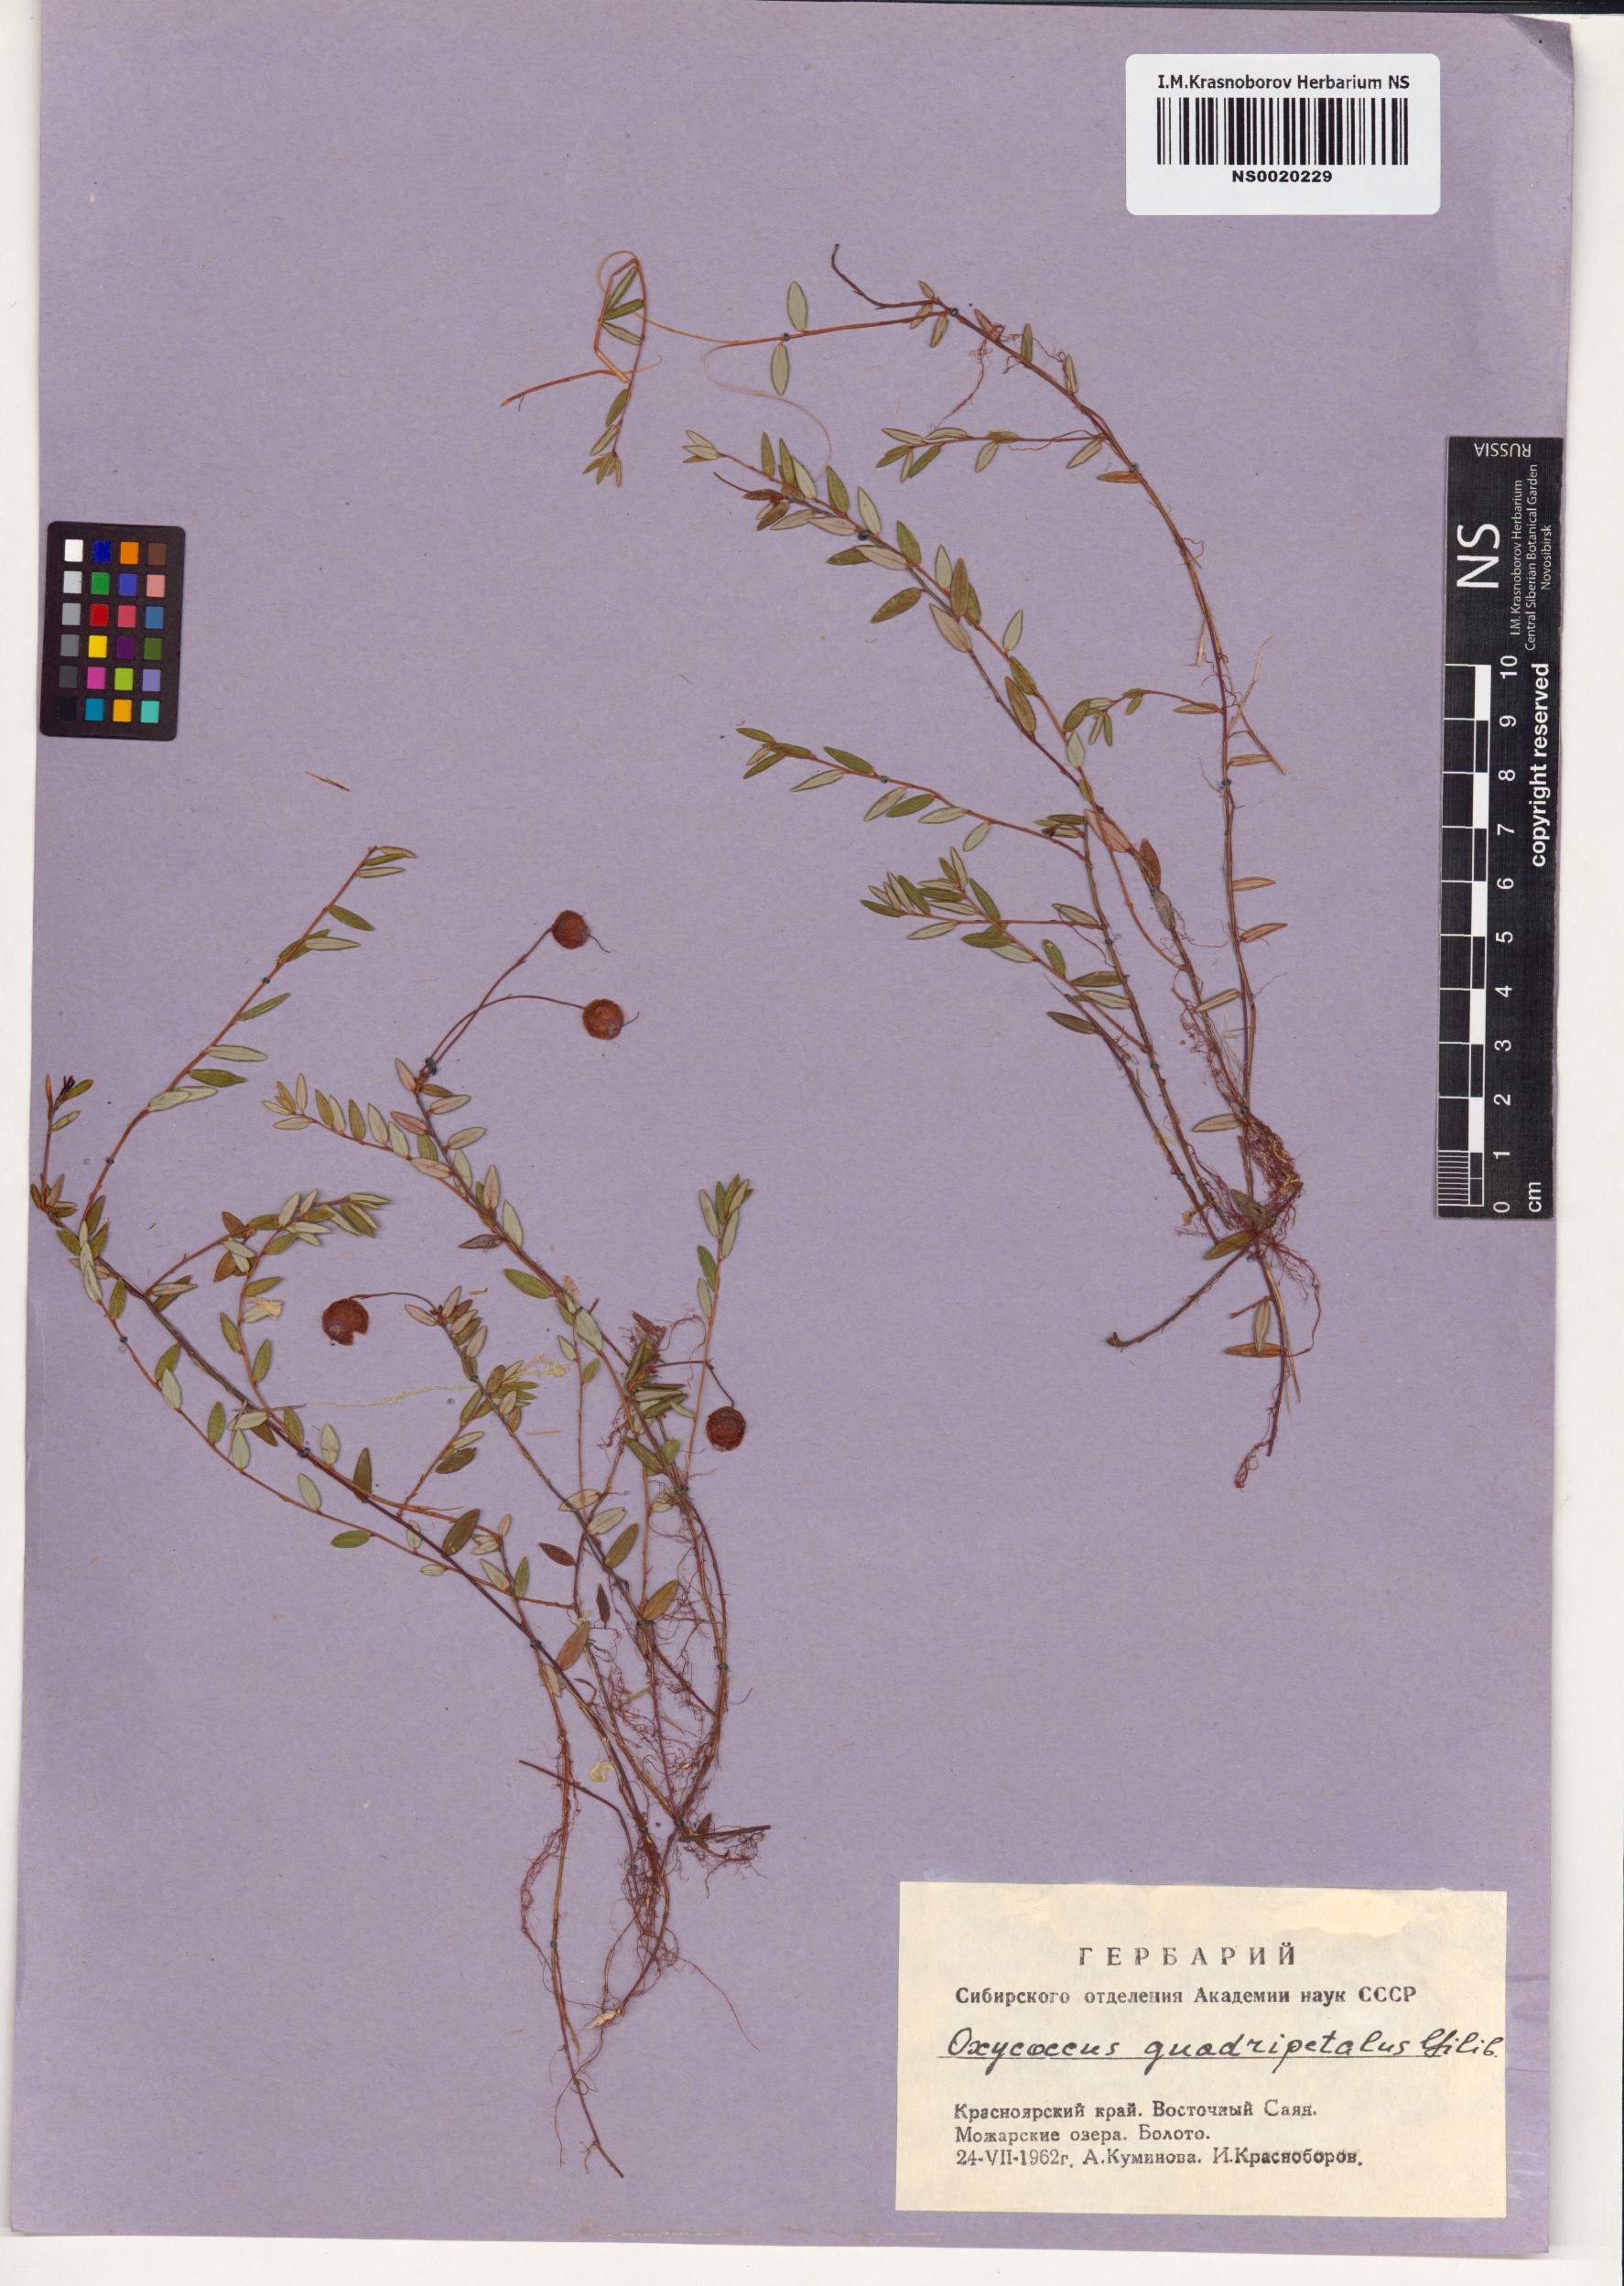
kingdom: Plantae
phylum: Tracheophyta
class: Magnoliopsida
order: Ericales
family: Ericaceae
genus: Vaccinium
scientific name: Vaccinium oxycoccos
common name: Cranberry
